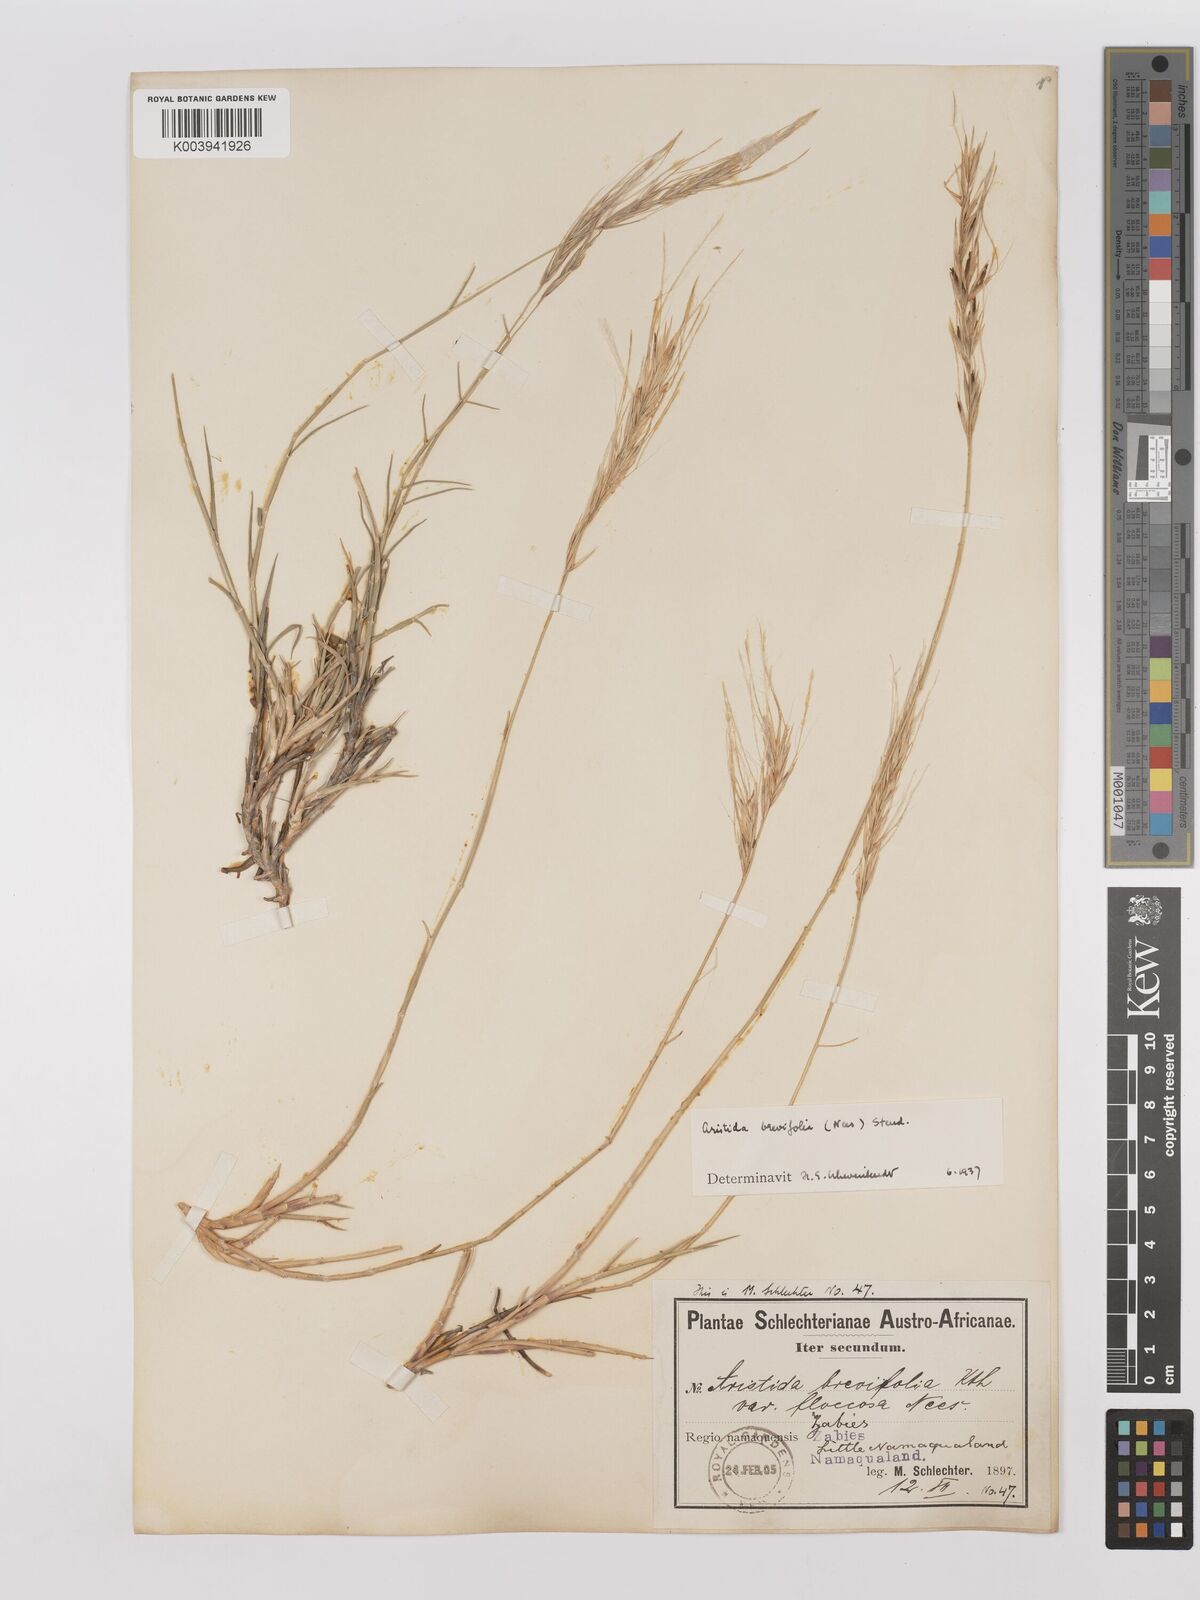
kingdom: Plantae
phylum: Tracheophyta
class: Liliopsida
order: Poales
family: Poaceae
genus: Stipagrostis
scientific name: Stipagrostis brevifolia
